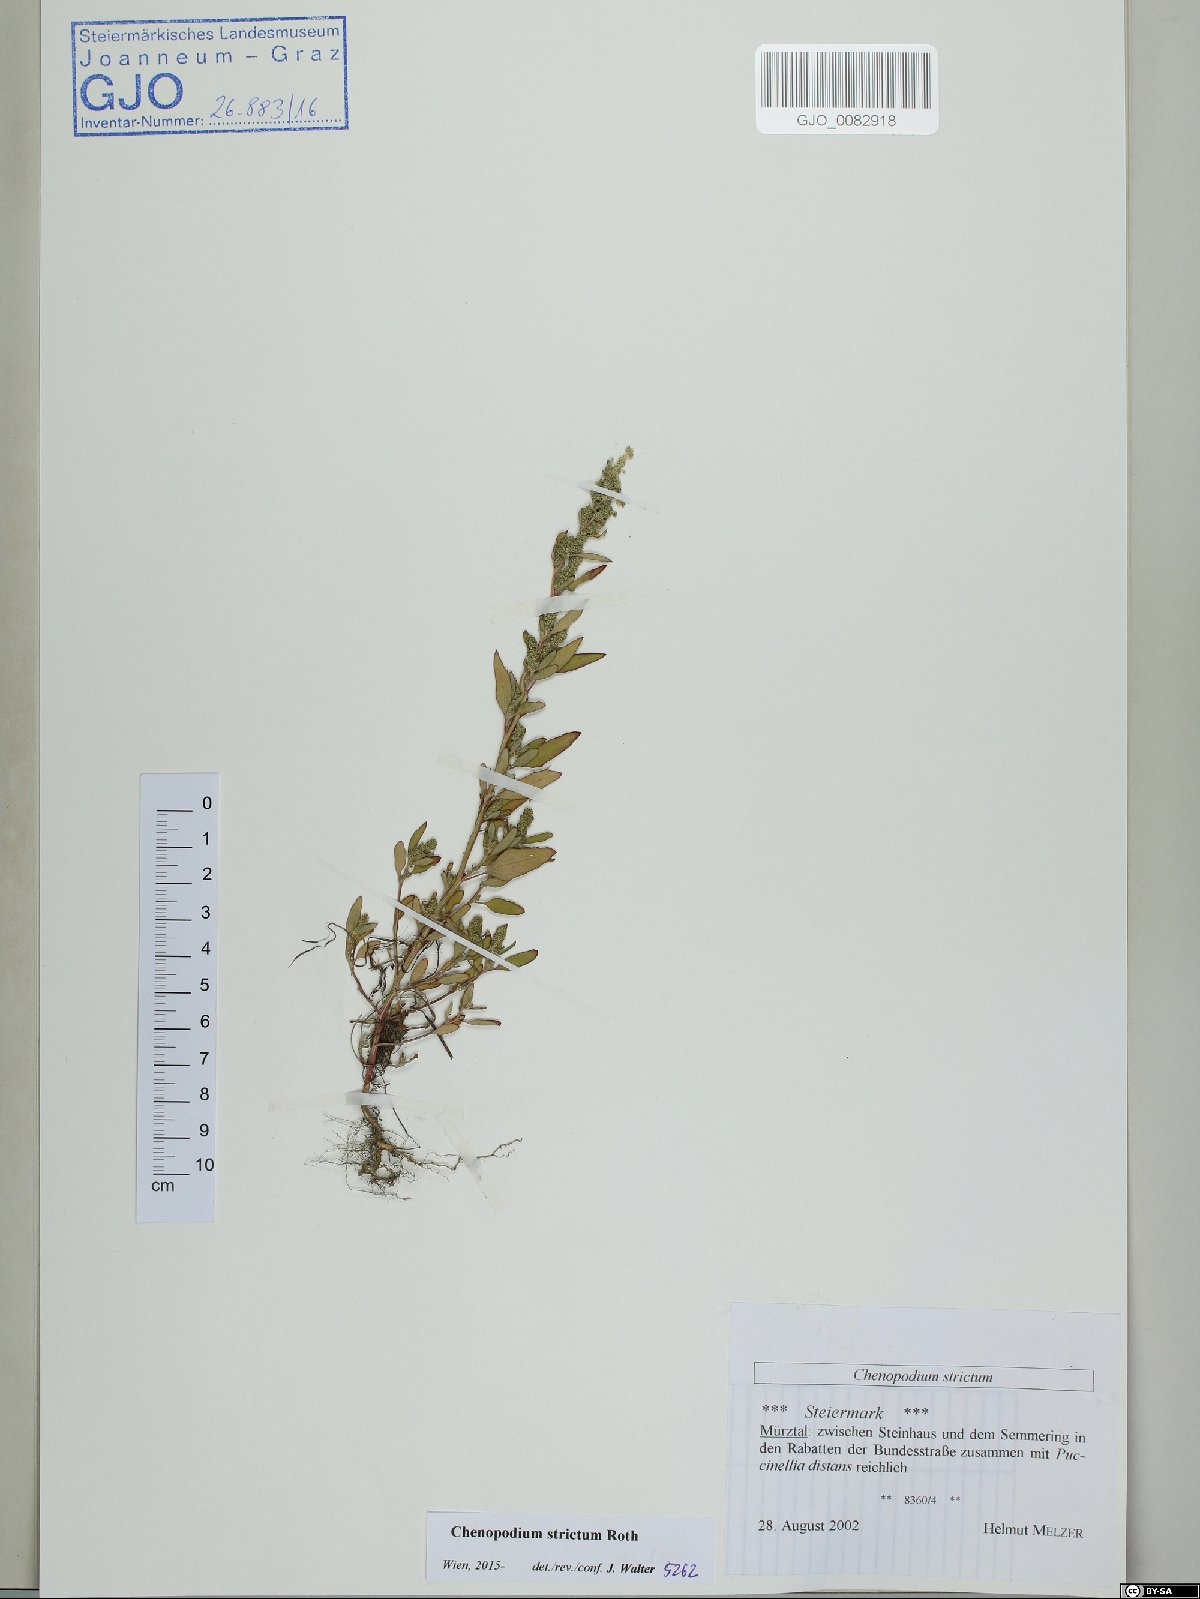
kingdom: Plantae
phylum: Tracheophyta
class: Magnoliopsida
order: Caryophyllales
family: Amaranthaceae
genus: Chenopodium
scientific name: Chenopodium album
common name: Fat-hen
